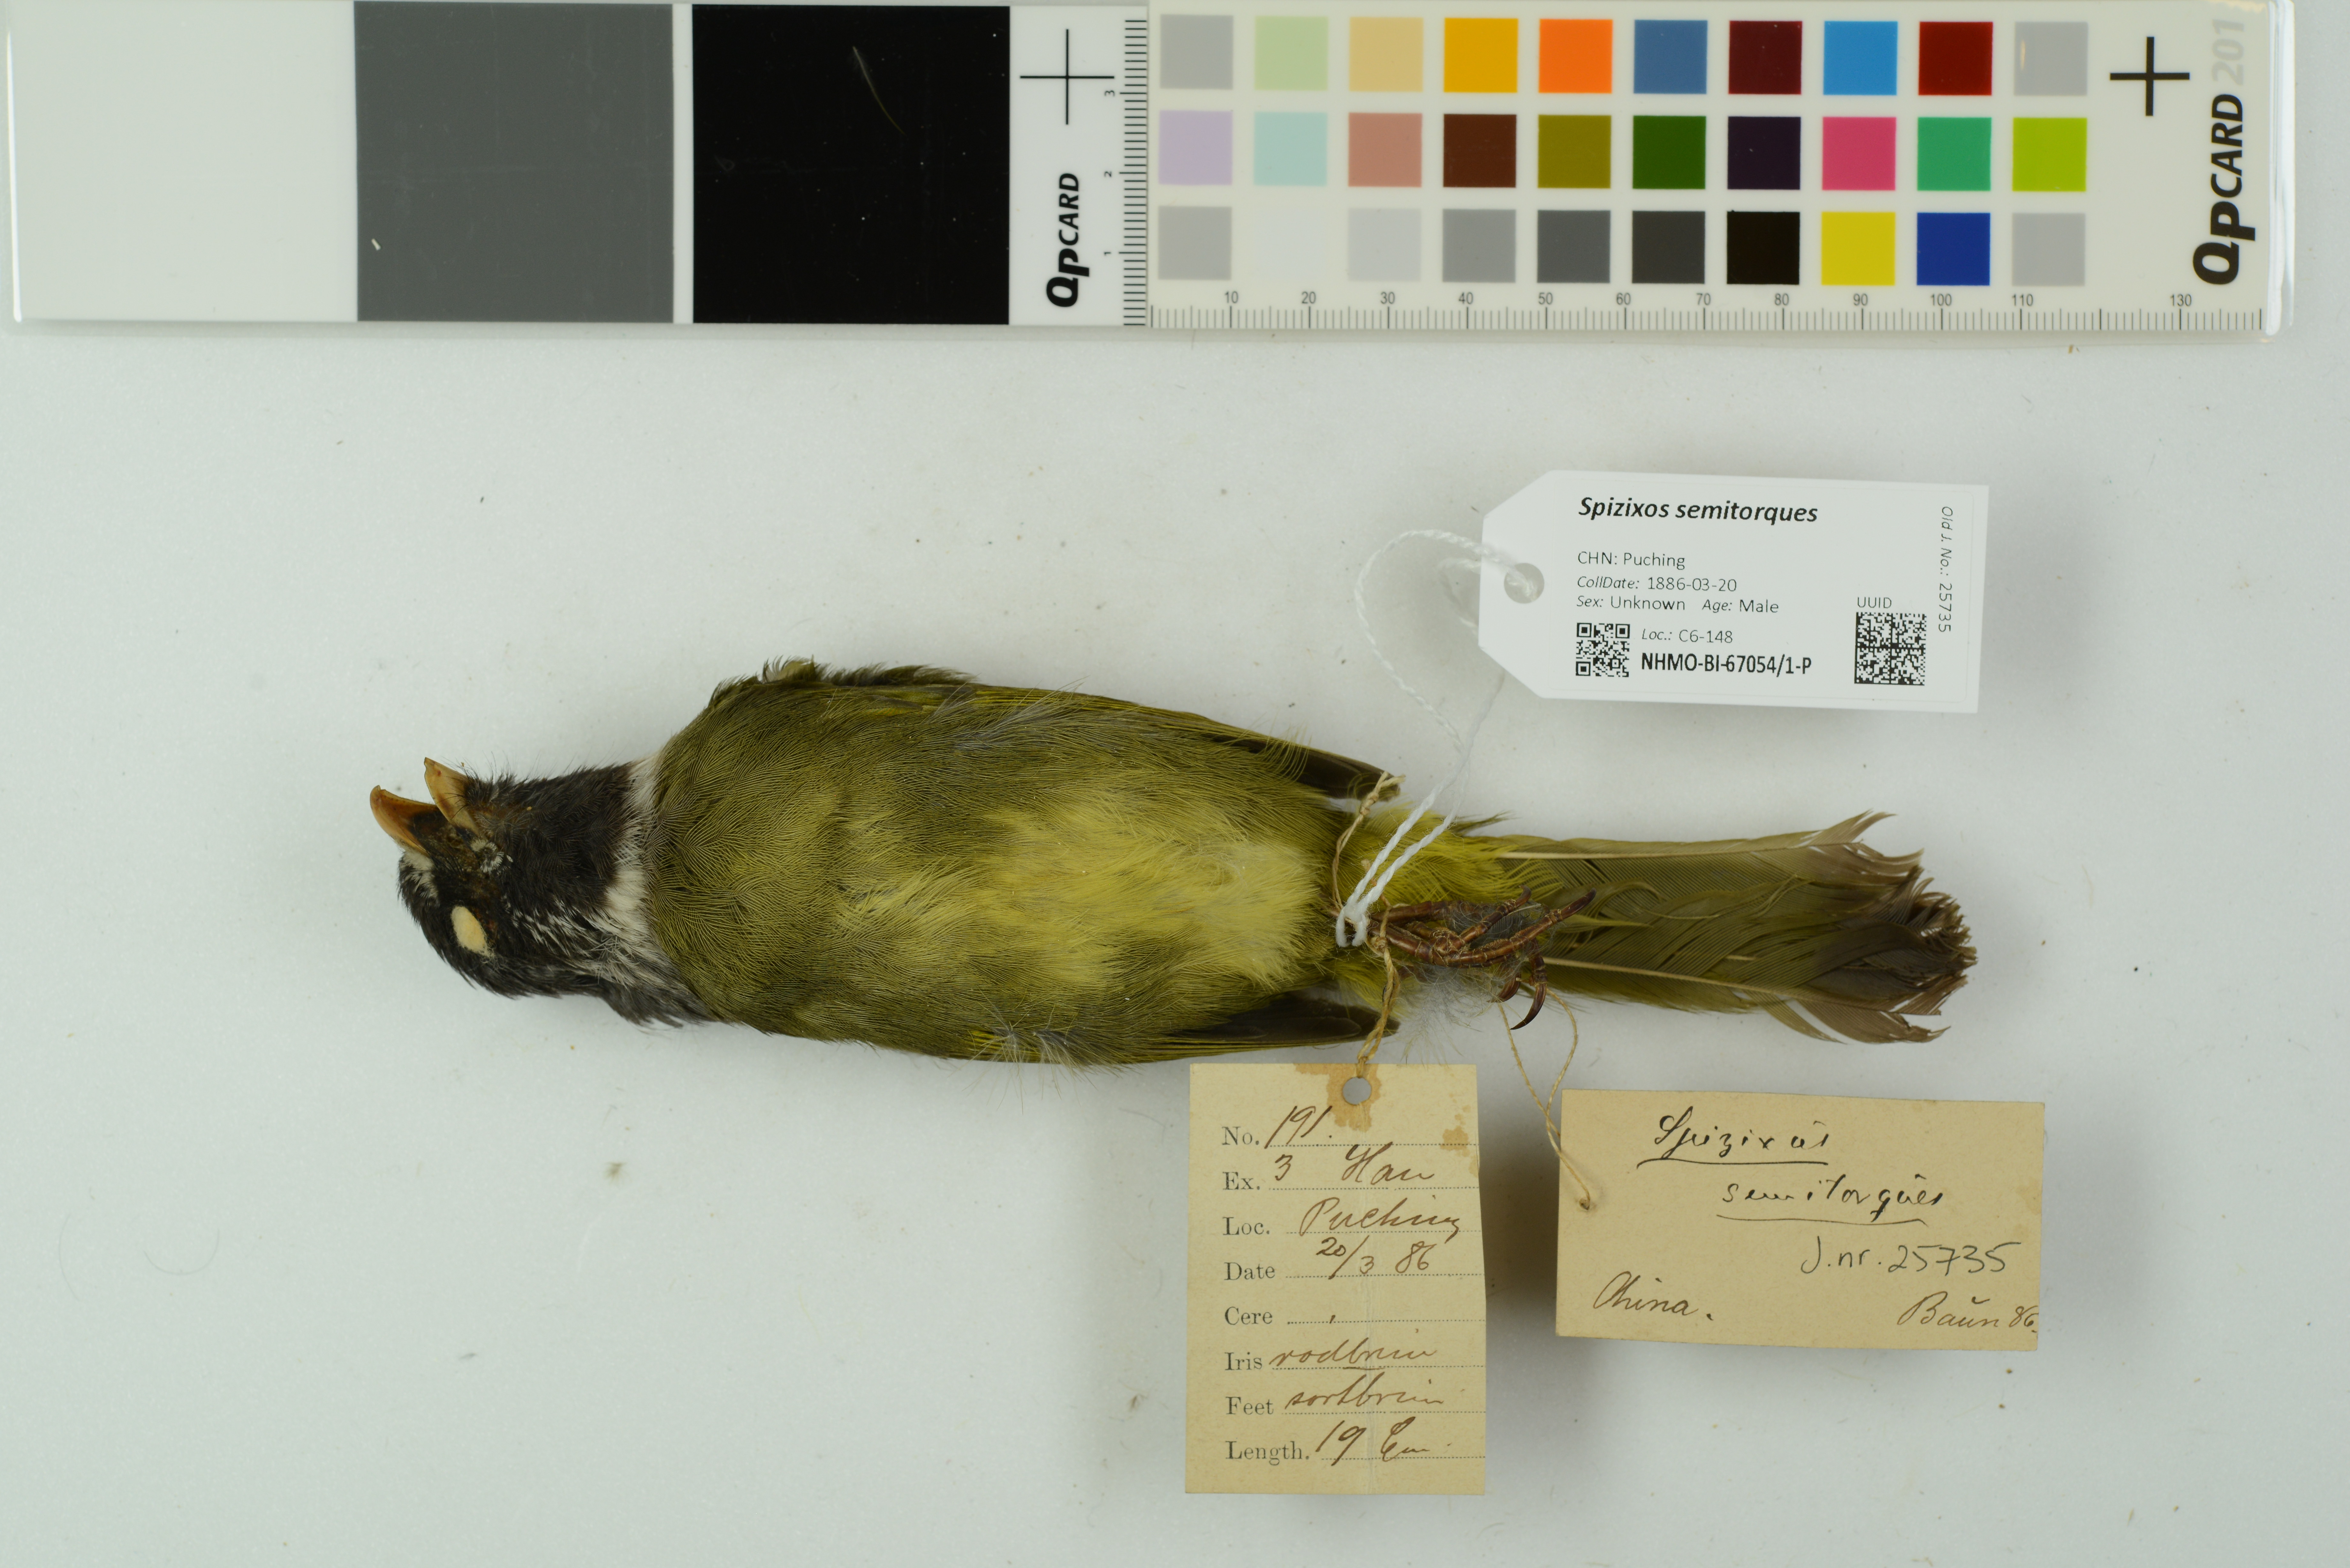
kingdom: Animalia
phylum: Chordata
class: Aves
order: Passeriformes
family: Pycnonotidae
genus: Spizixos
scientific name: Spizixos semitorques
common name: Collared finchbill
